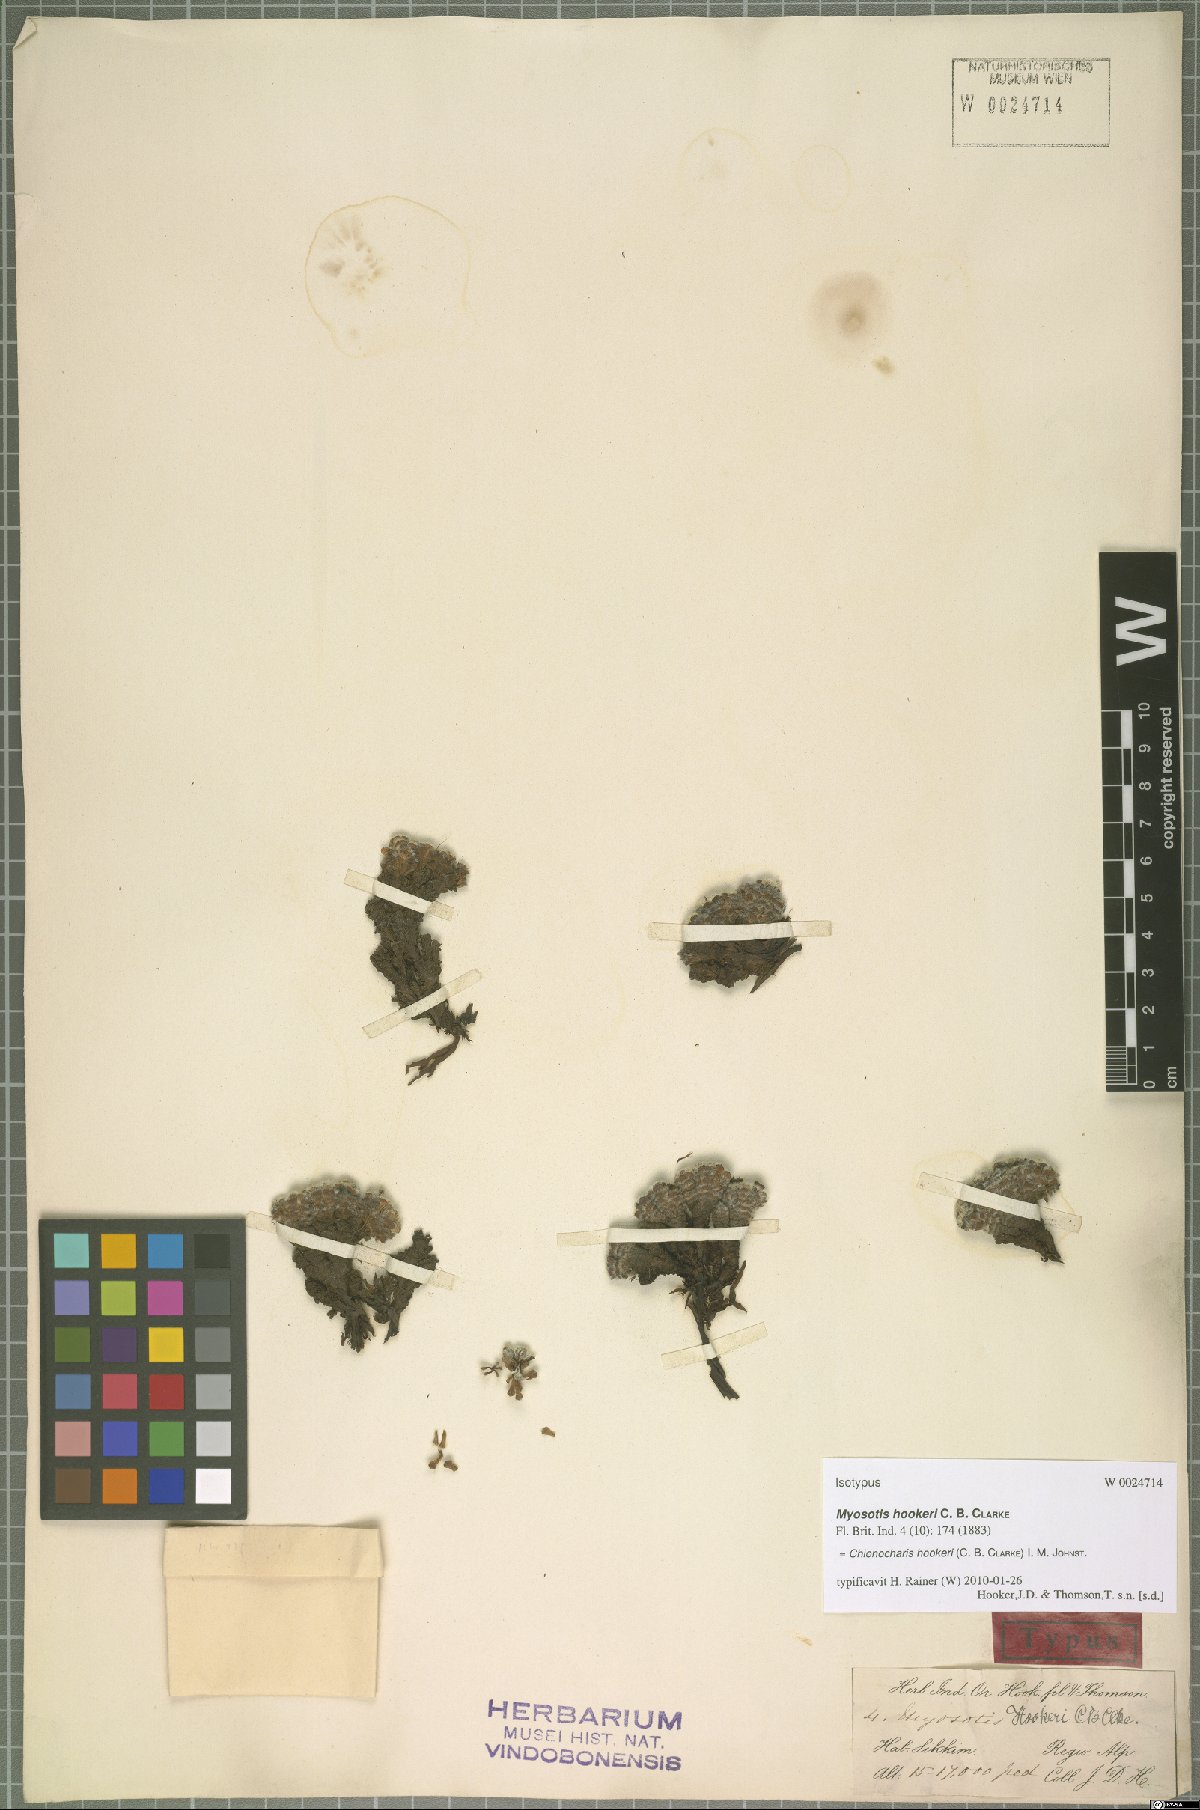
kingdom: Plantae
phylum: Tracheophyta
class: Magnoliopsida
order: Boraginales
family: Boraginaceae
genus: Chionocharis
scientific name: Chionocharis hookeri
